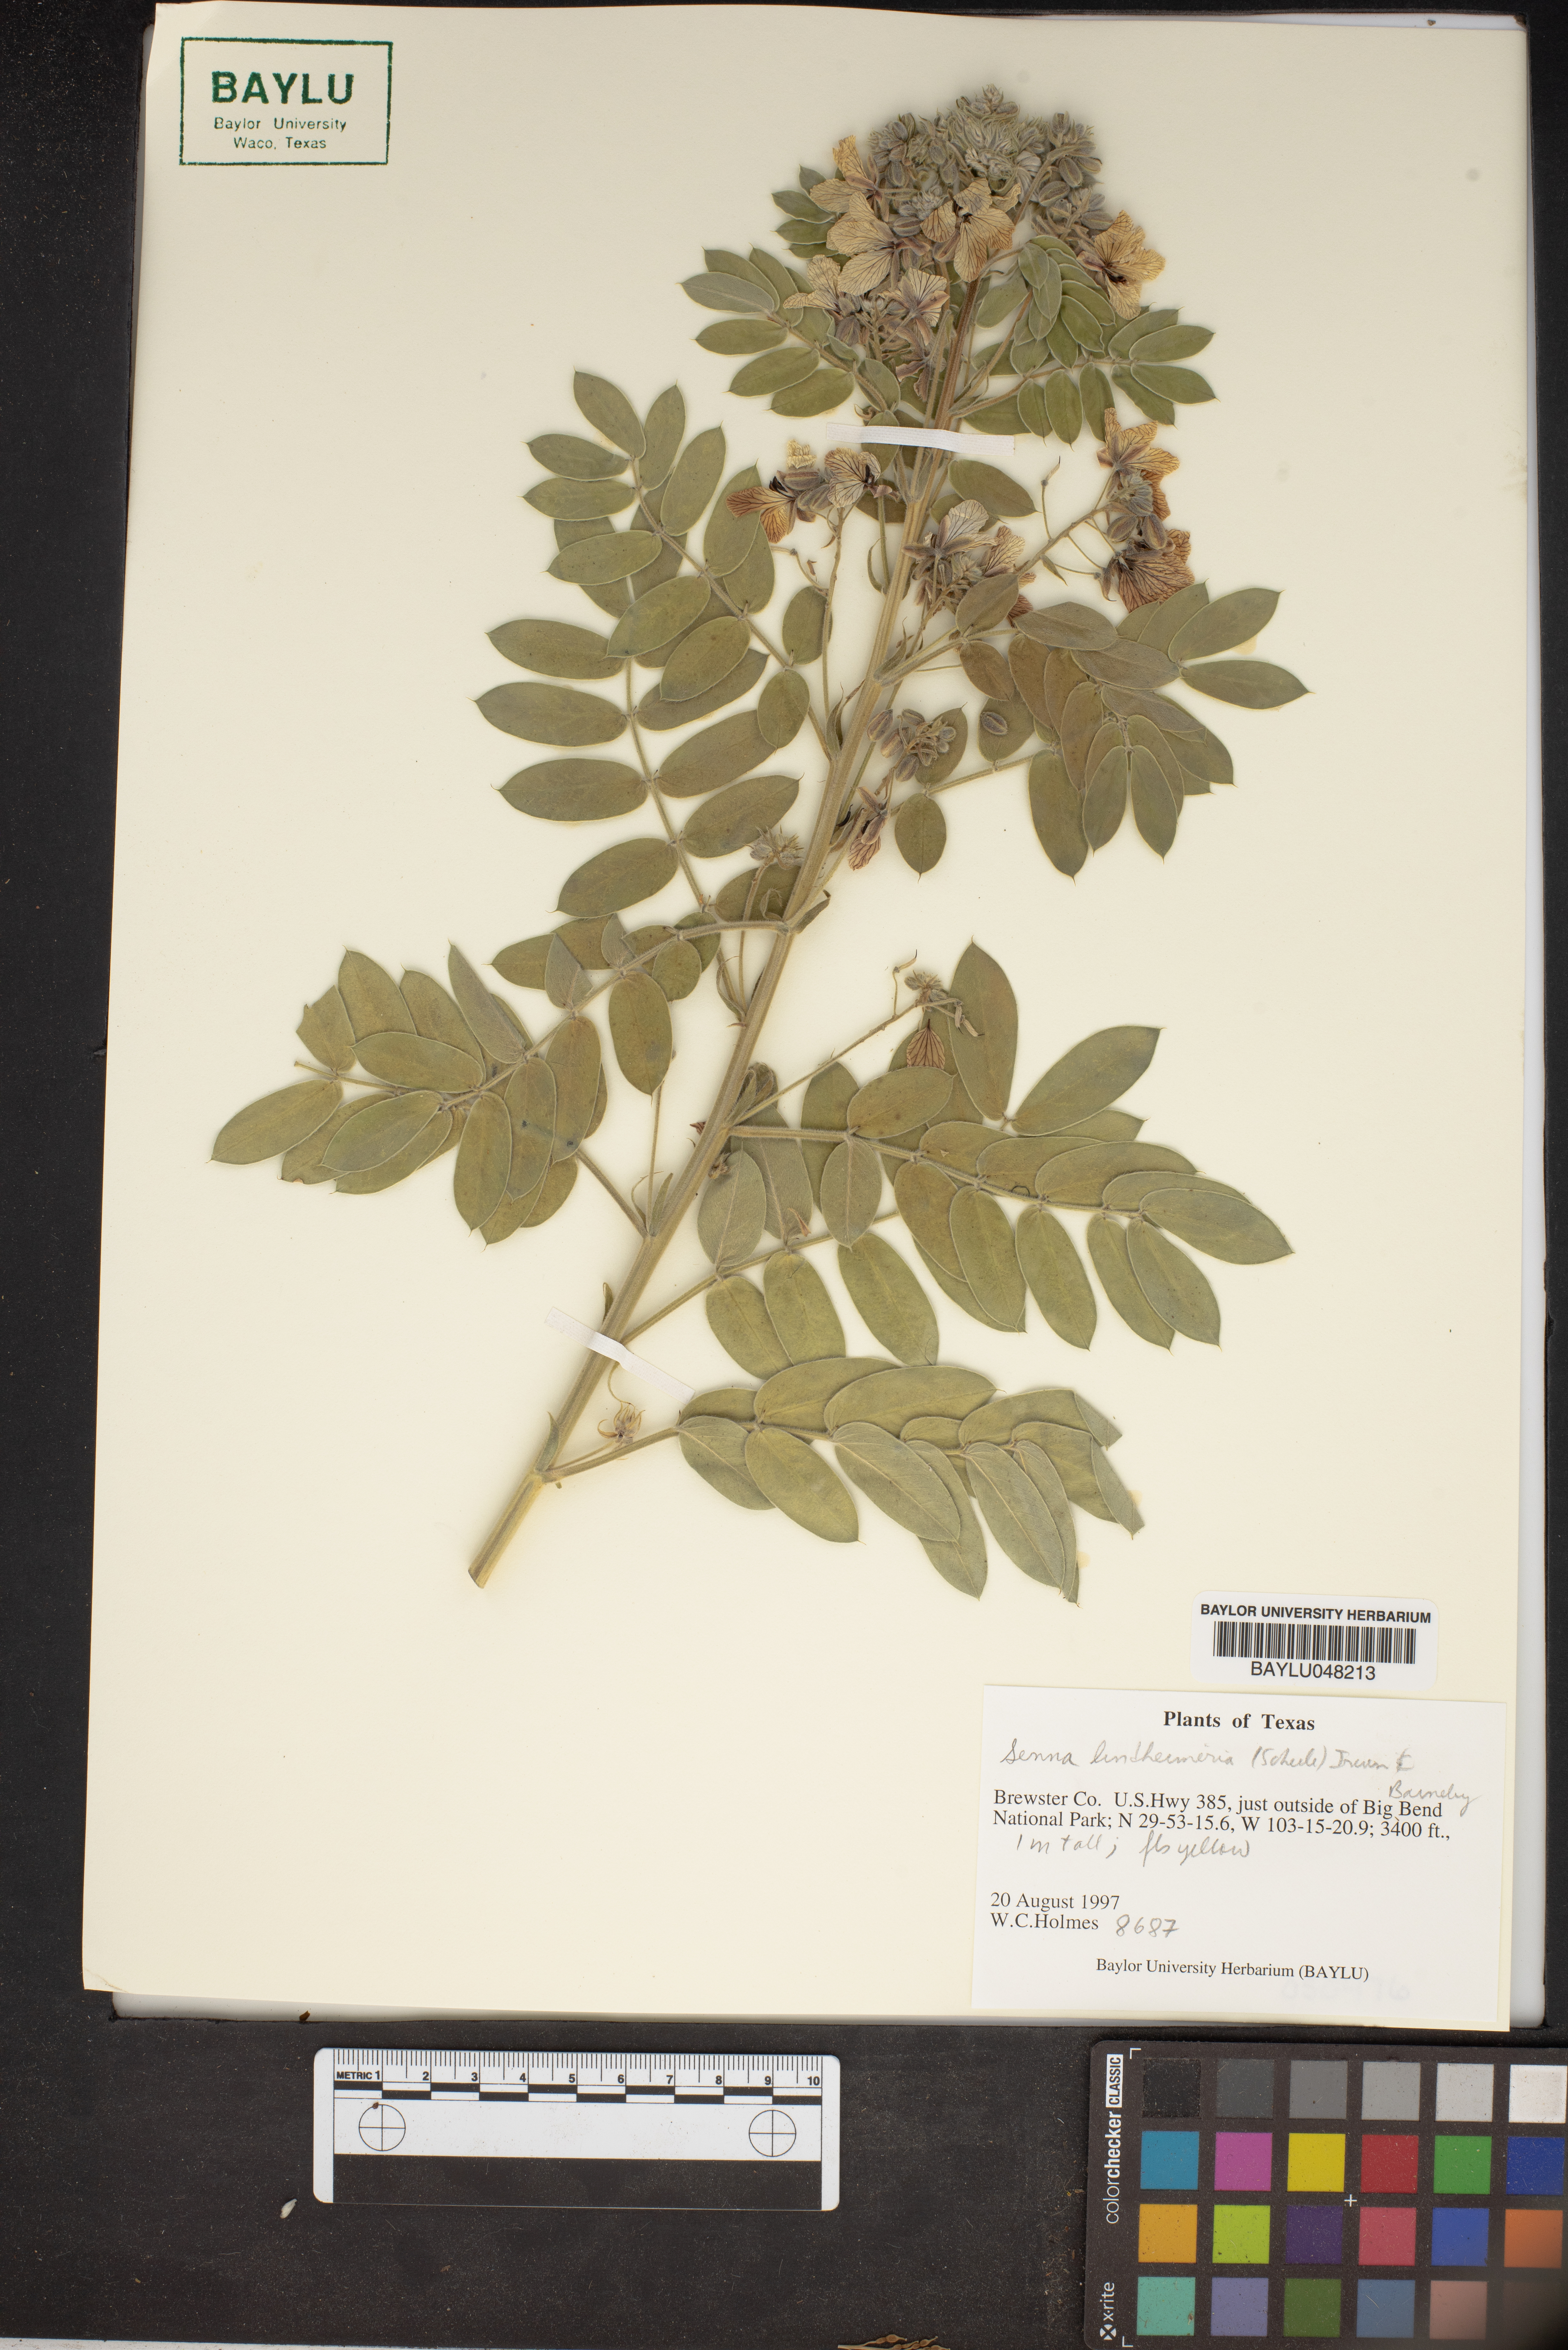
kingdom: Plantae
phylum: Tracheophyta
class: Magnoliopsida
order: Fabales
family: Fabaceae
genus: Senna
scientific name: Senna lindheimeriana
